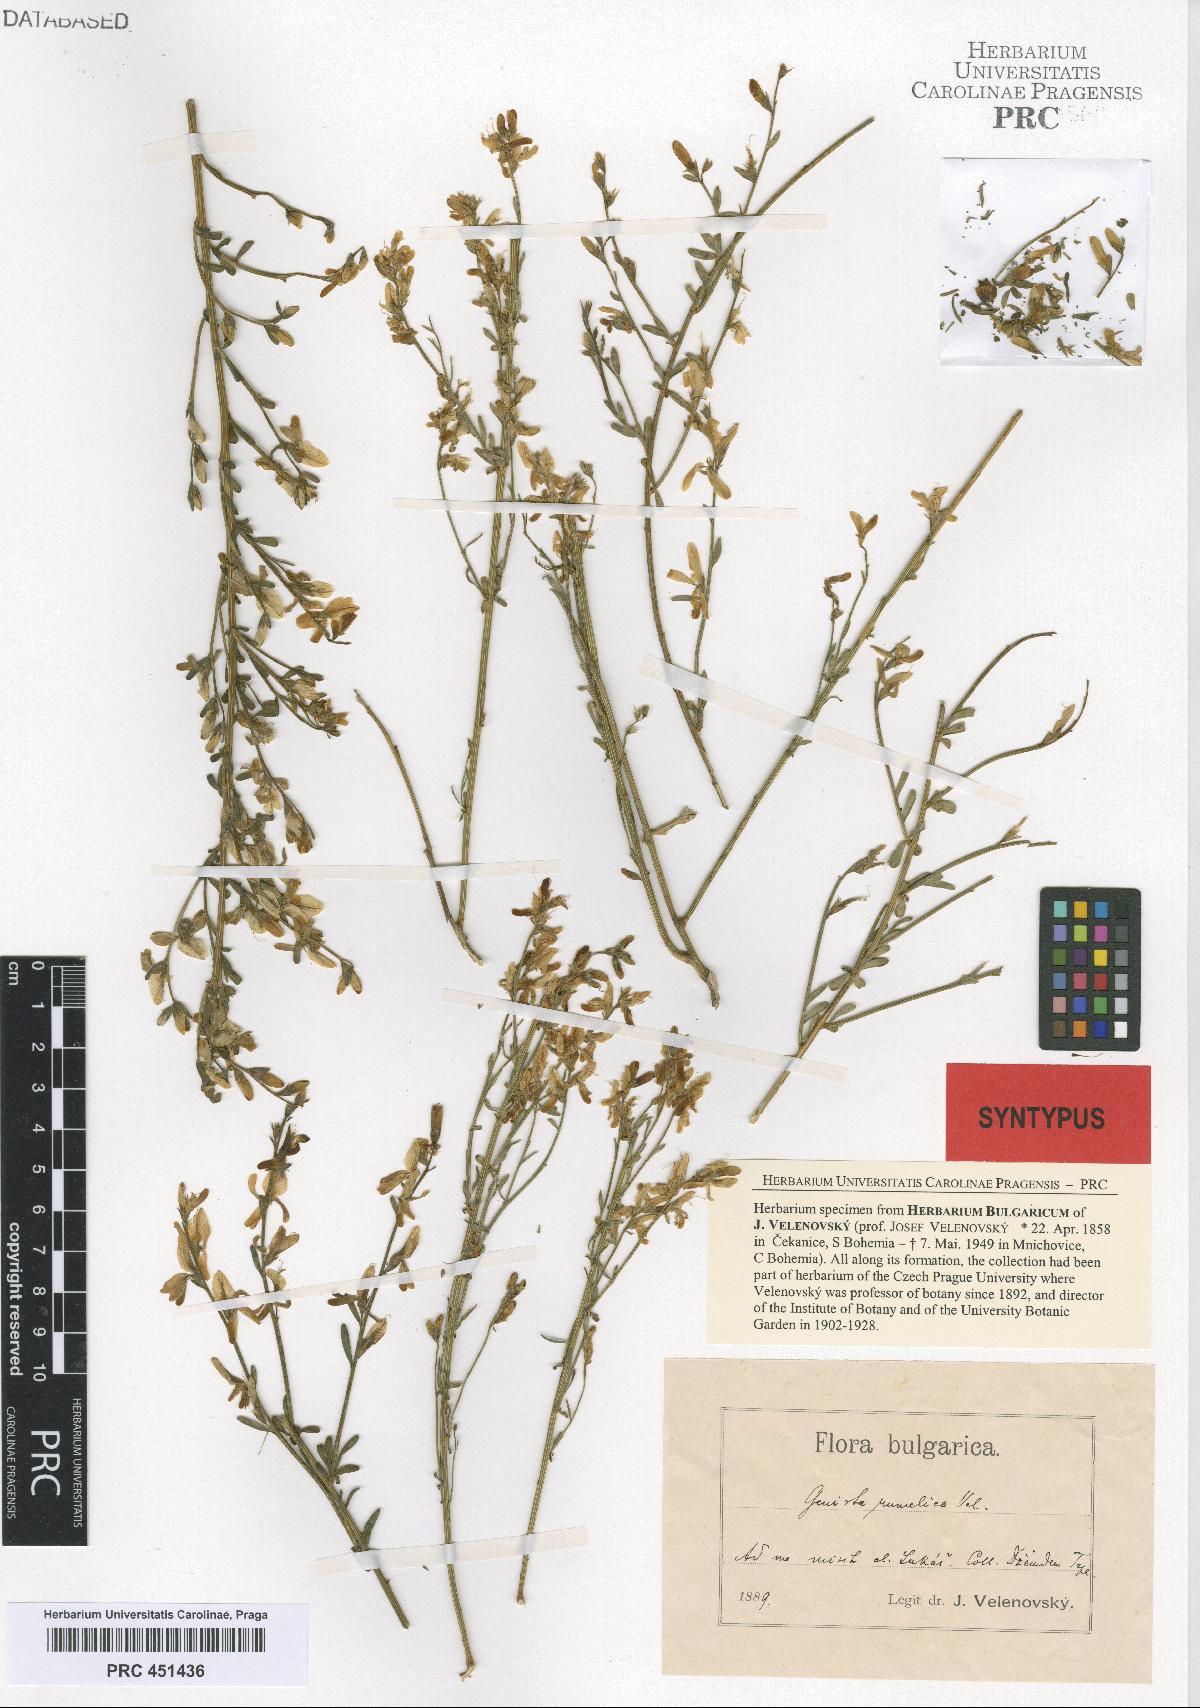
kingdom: Plantae
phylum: Tracheophyta
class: Magnoliopsida
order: Fabales
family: Fabaceae
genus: Genista
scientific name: Genista lydia
